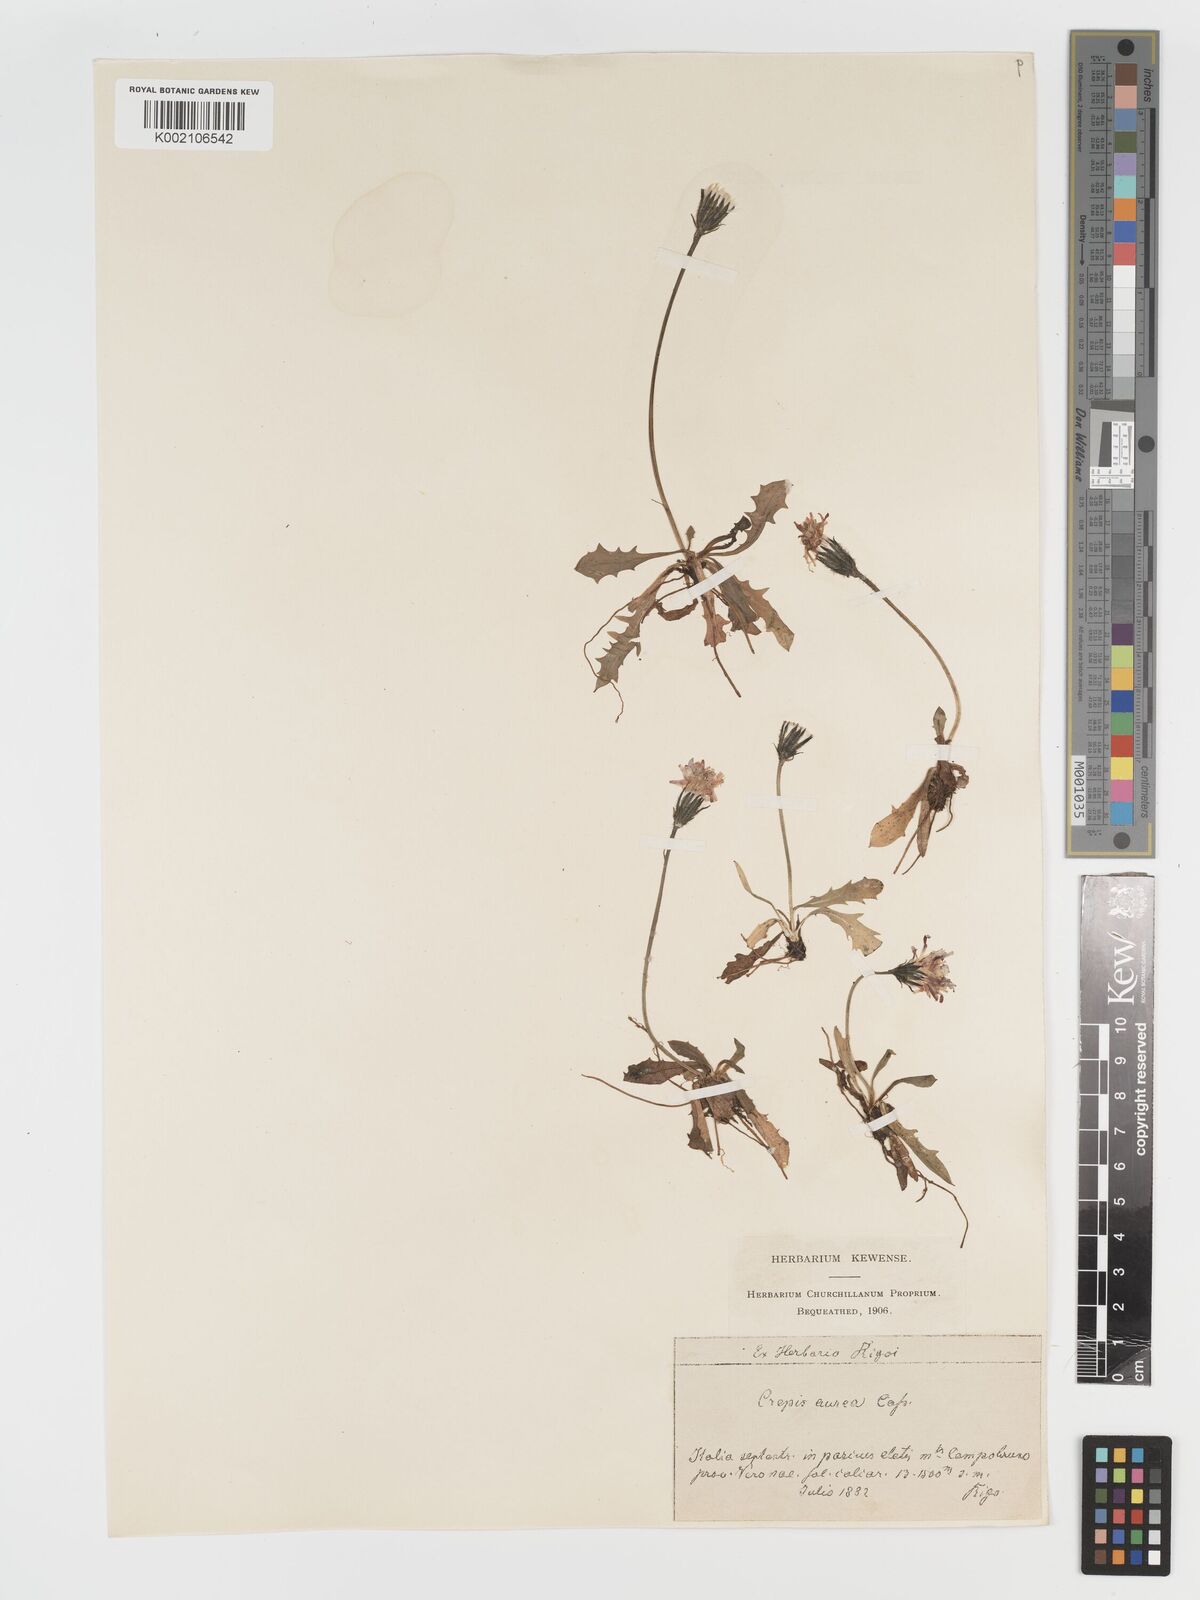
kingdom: Plantae
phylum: Tracheophyta
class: Magnoliopsida
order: Asterales
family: Asteraceae
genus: Crepis
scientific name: Crepis aurea
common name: Golden hawk's-beard
